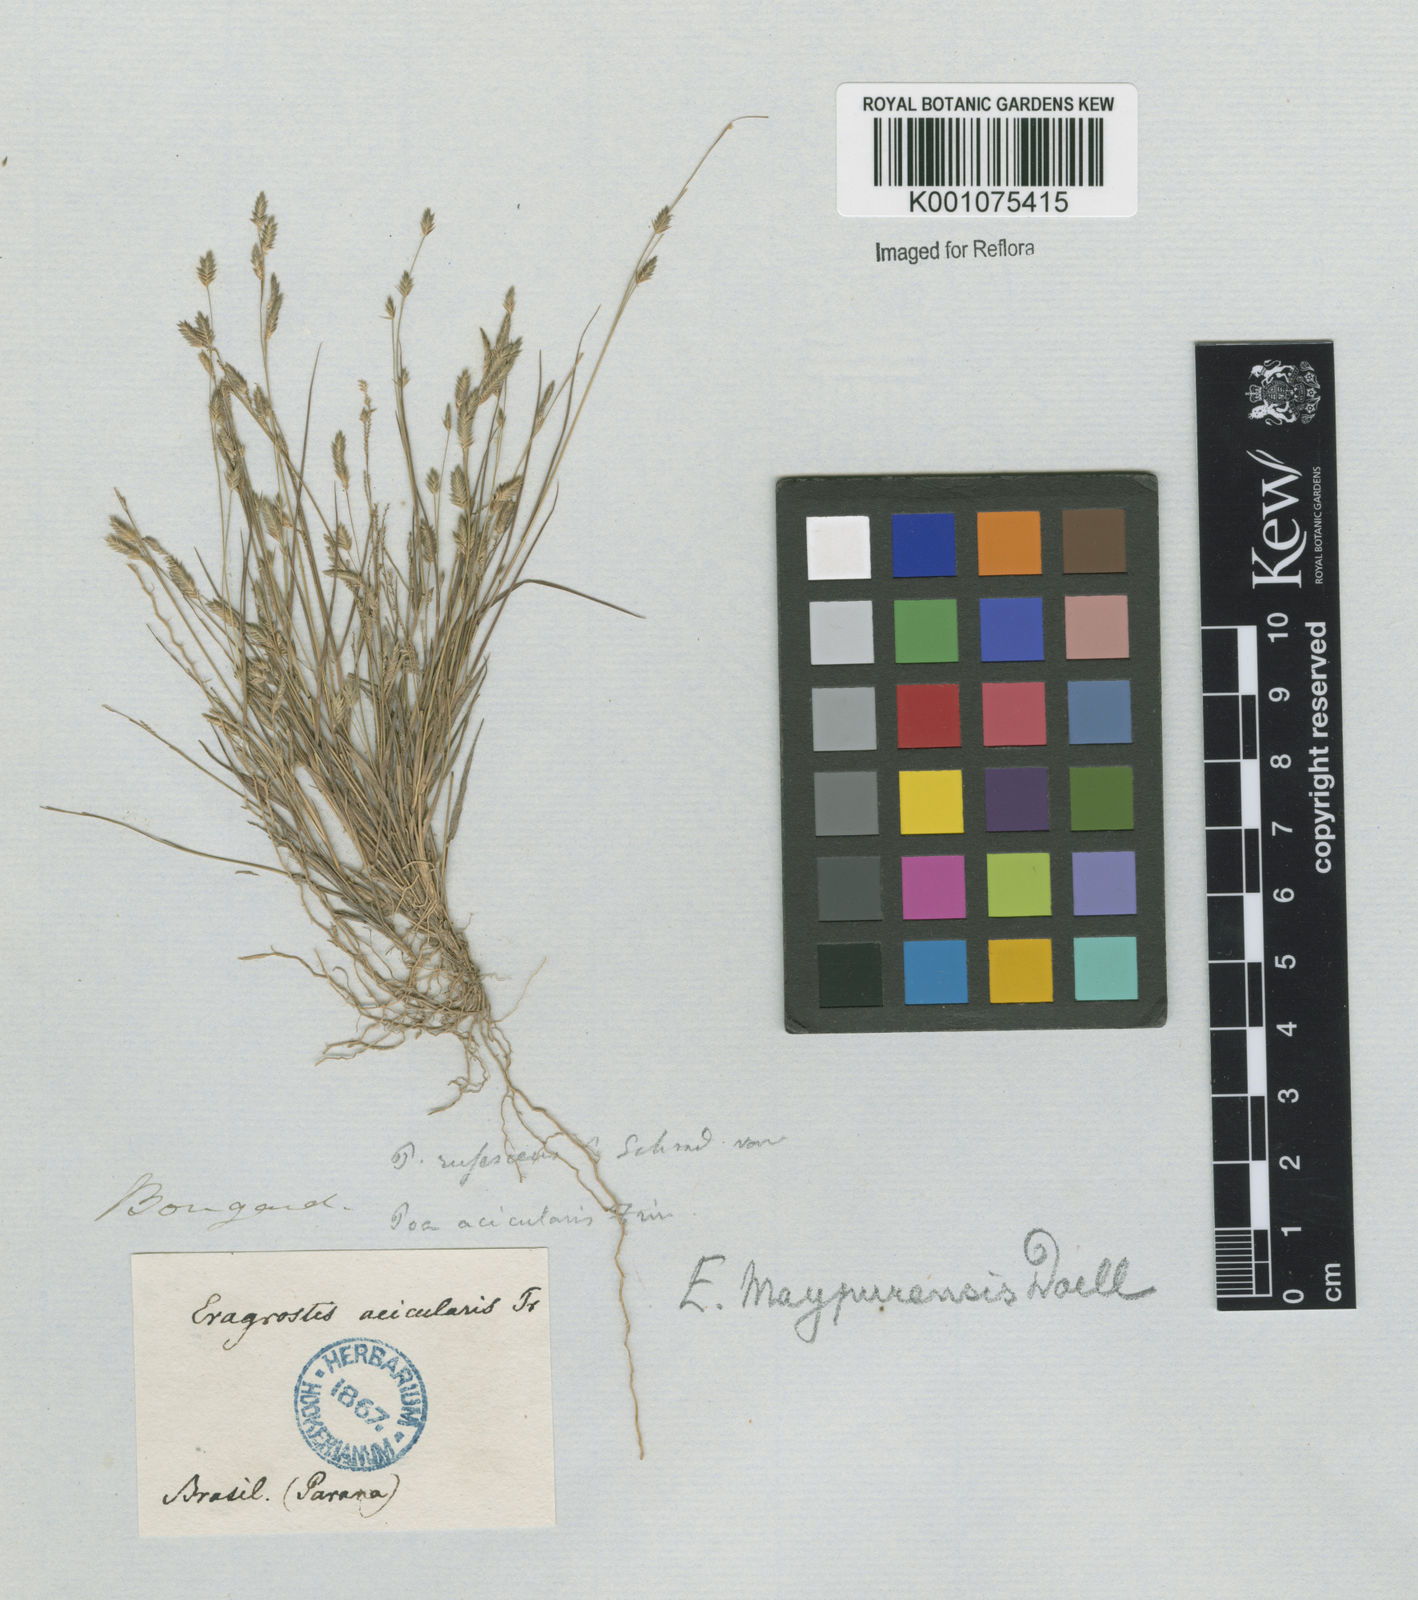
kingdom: Plantae
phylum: Tracheophyta
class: Liliopsida
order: Poales
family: Poaceae
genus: Eragrostis
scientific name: Eragrostis rufescens
